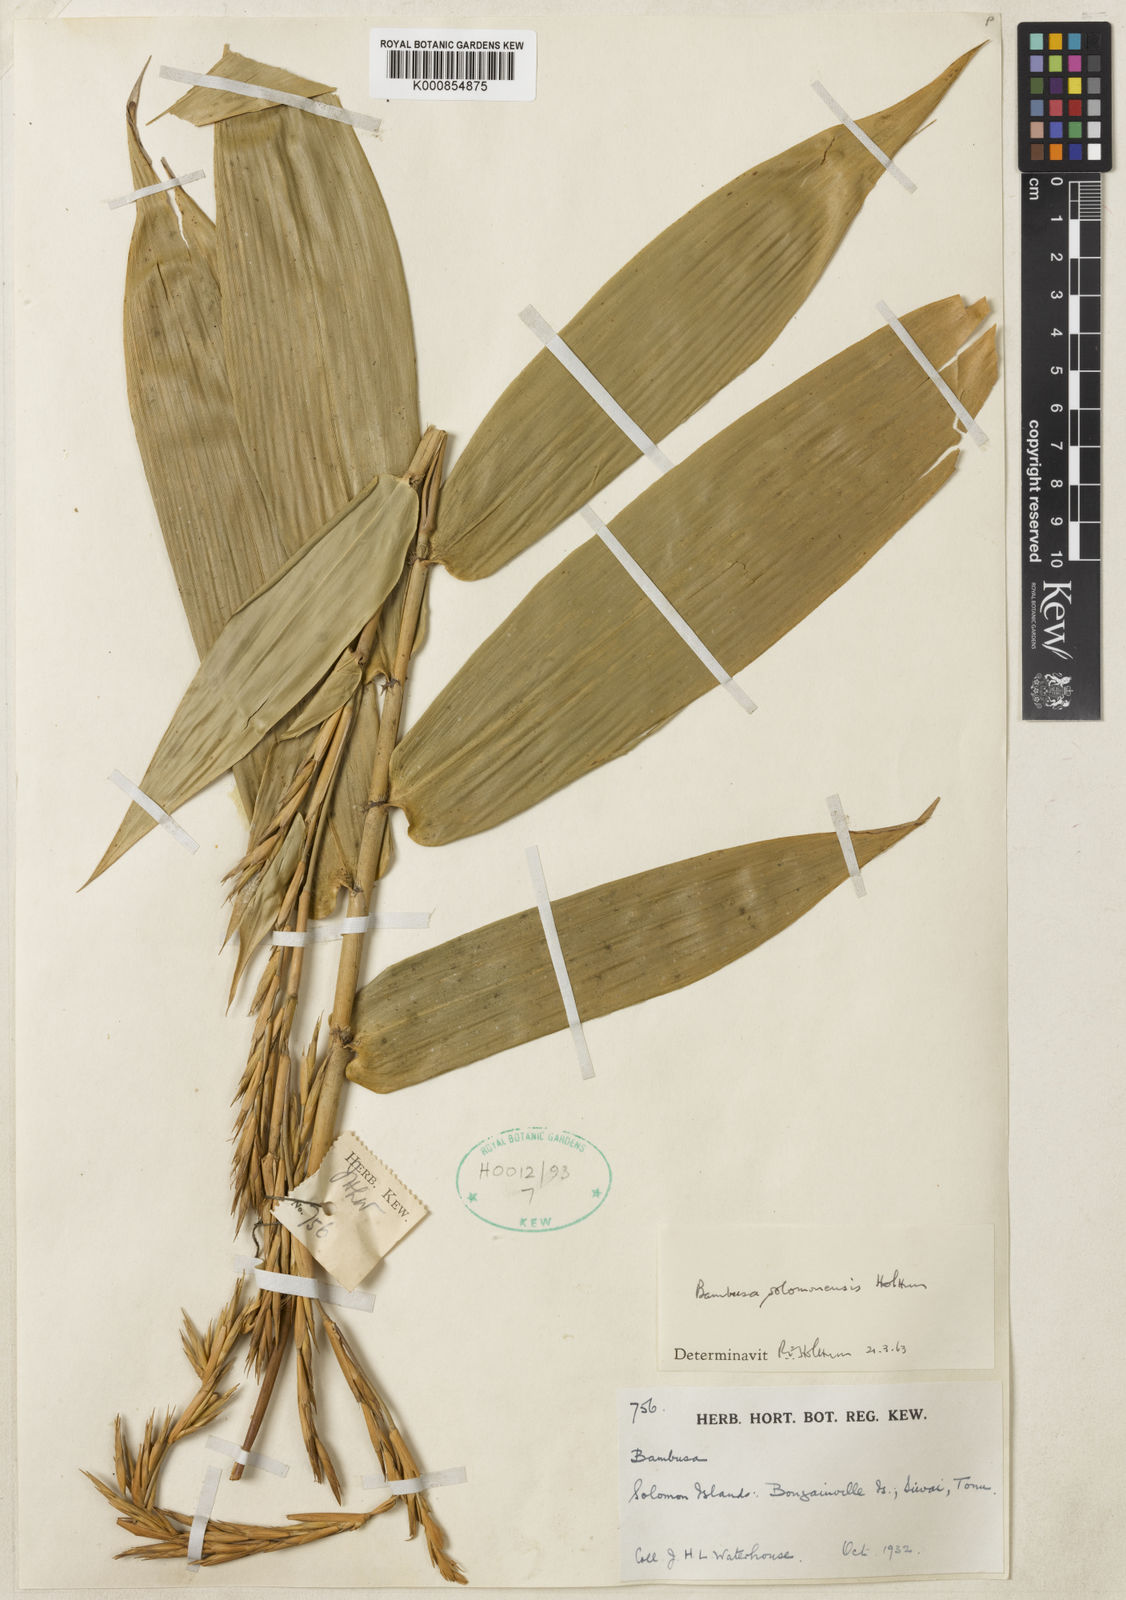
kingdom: Plantae
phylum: Tracheophyta
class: Liliopsida
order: Poales
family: Poaceae
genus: Bambusa
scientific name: Bambusa solomonensis
